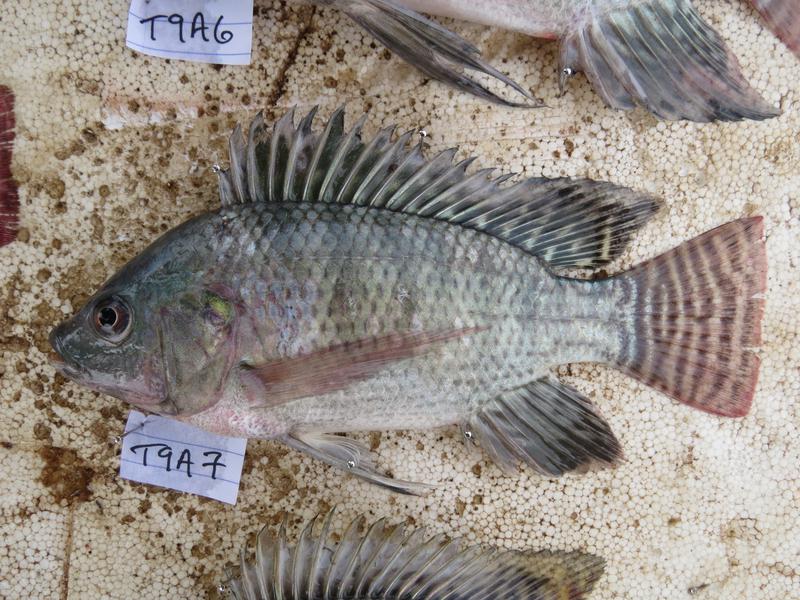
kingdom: Animalia
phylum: Chordata
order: Perciformes
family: Cichlidae
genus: Oreochromis
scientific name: Oreochromis
